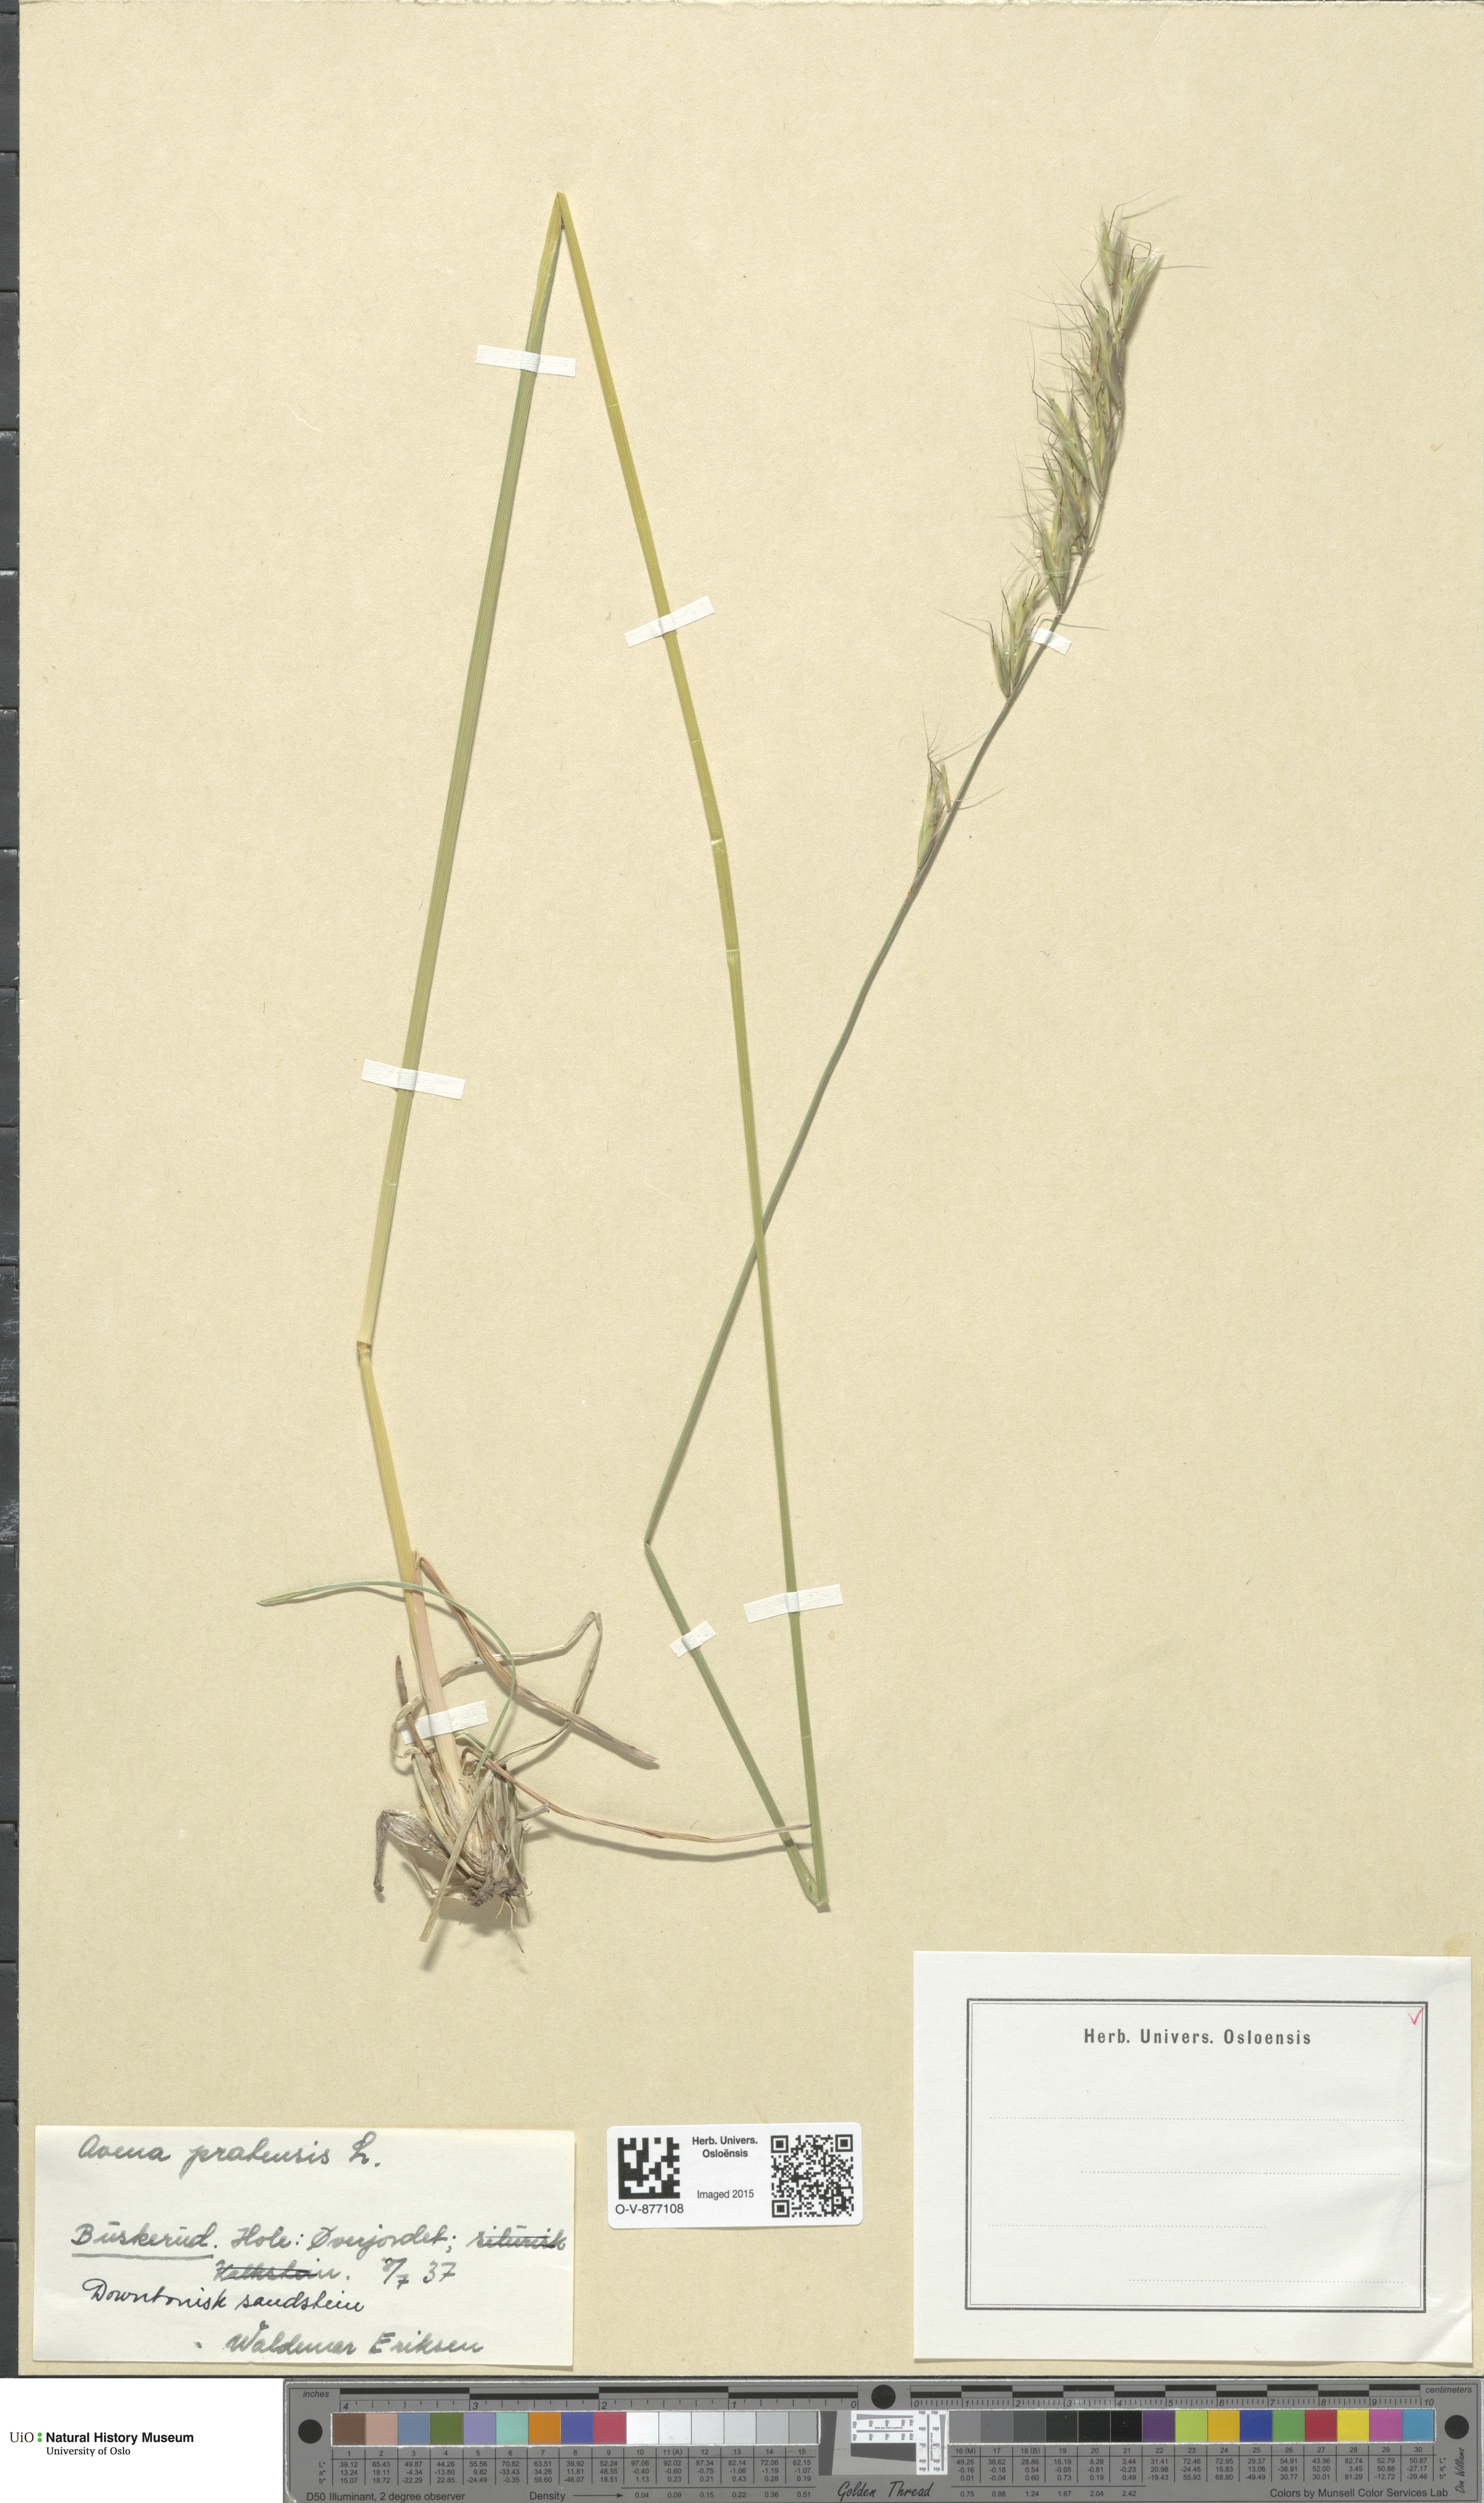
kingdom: Plantae
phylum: Tracheophyta
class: Liliopsida
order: Poales
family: Poaceae
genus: Helictochloa
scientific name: Helictochloa pratensis
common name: Meadow oat grass
